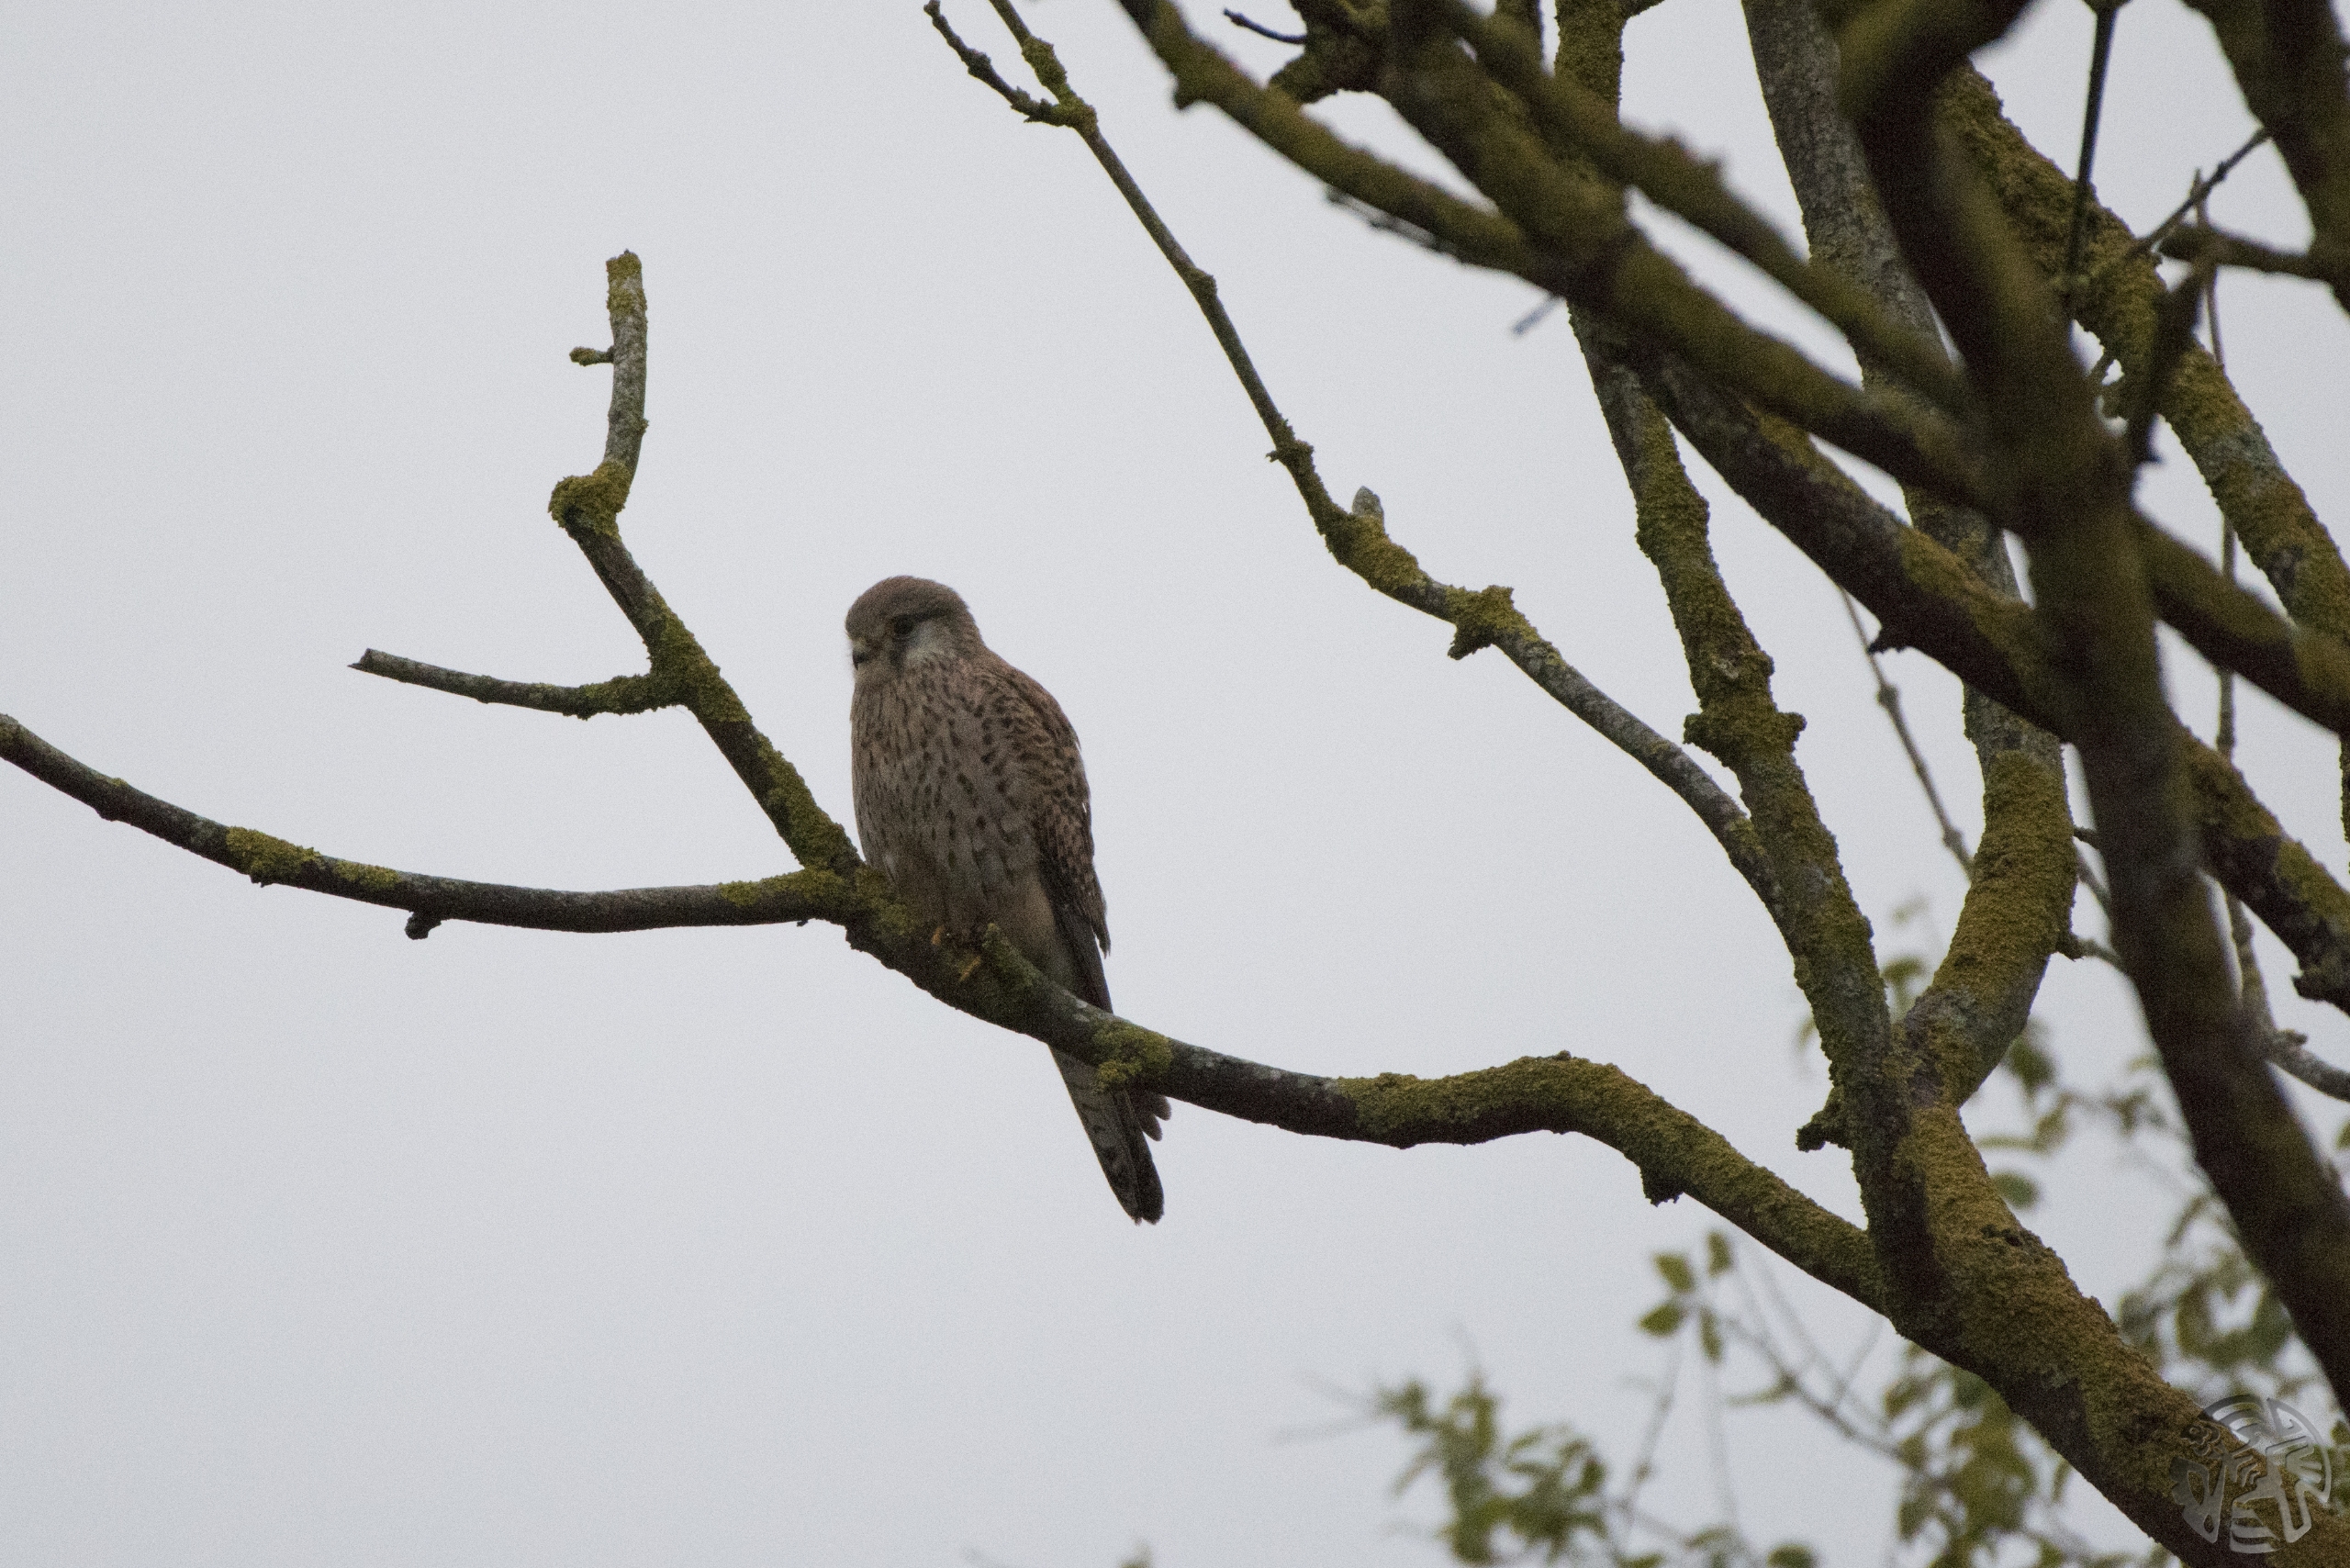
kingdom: Animalia
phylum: Chordata
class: Aves
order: Falconiformes
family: Falconidae
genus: Falco
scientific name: Falco tinnunculus
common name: Tårnfalk
